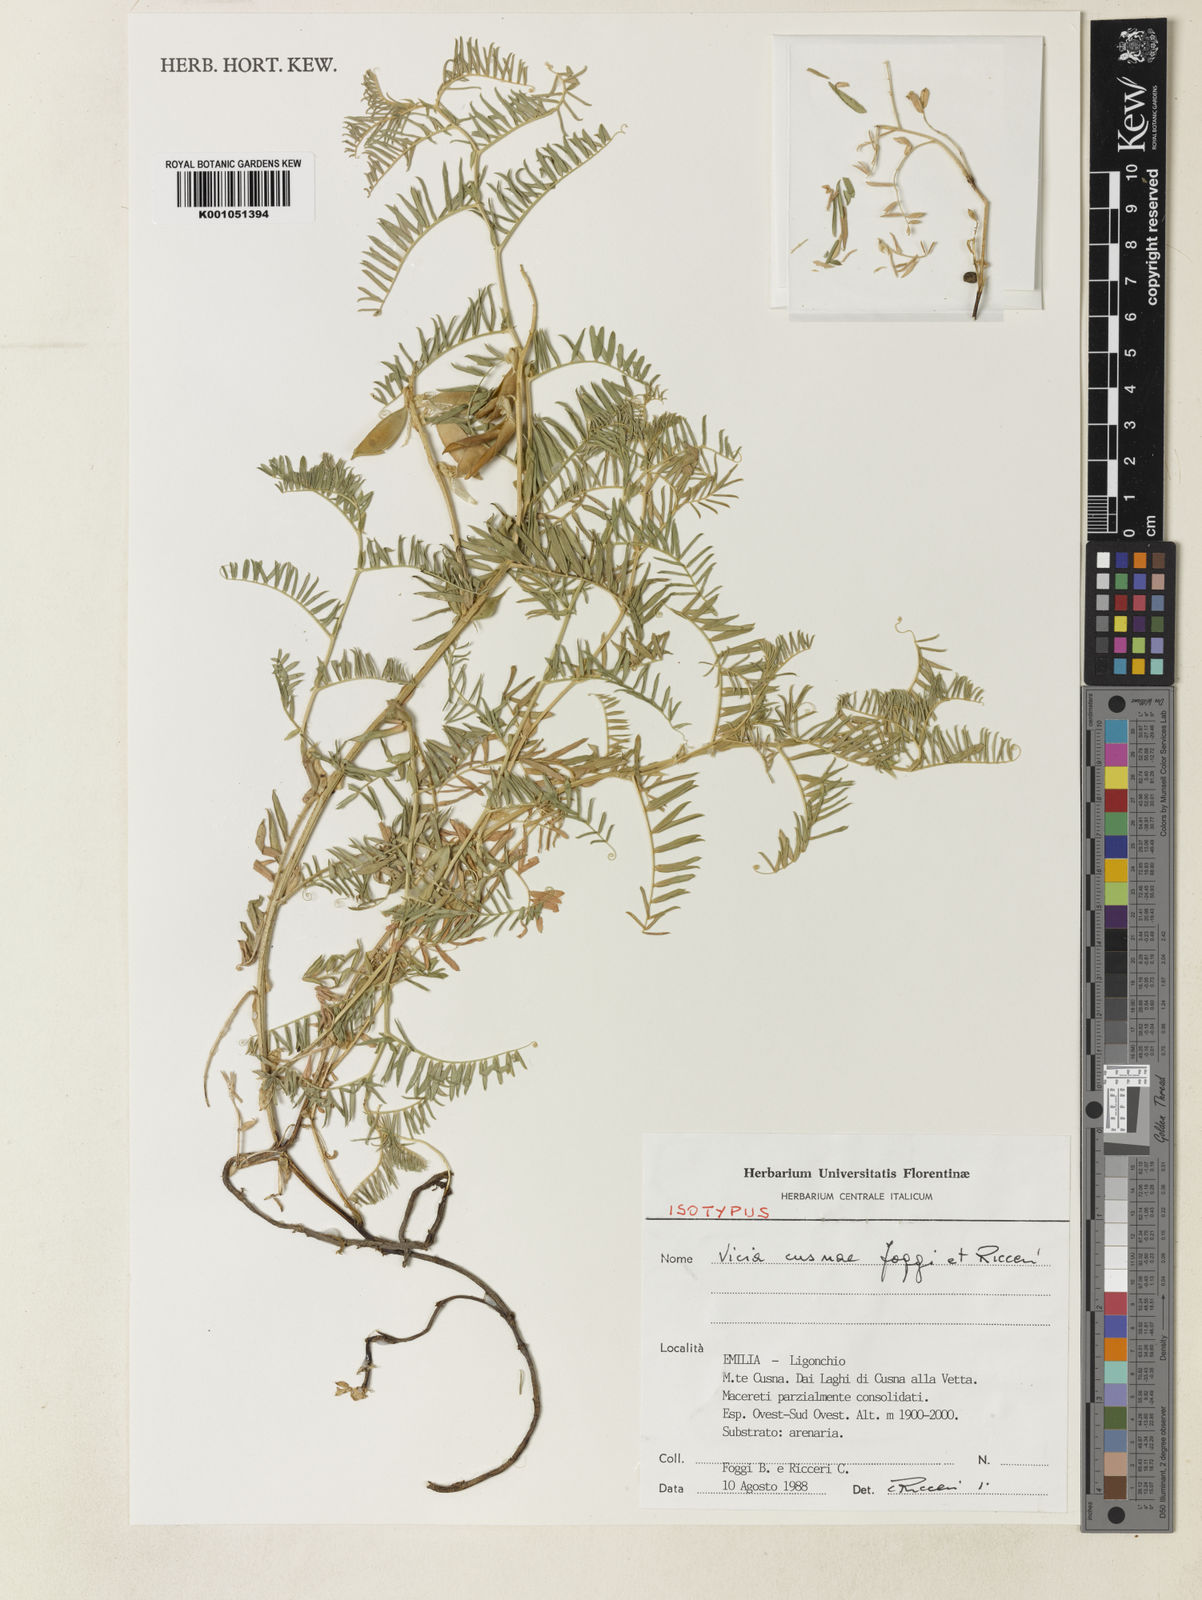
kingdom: Plantae
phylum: Tracheophyta
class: Magnoliopsida
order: Fabales
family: Fabaceae
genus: Vicia
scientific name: Vicia cusnae
